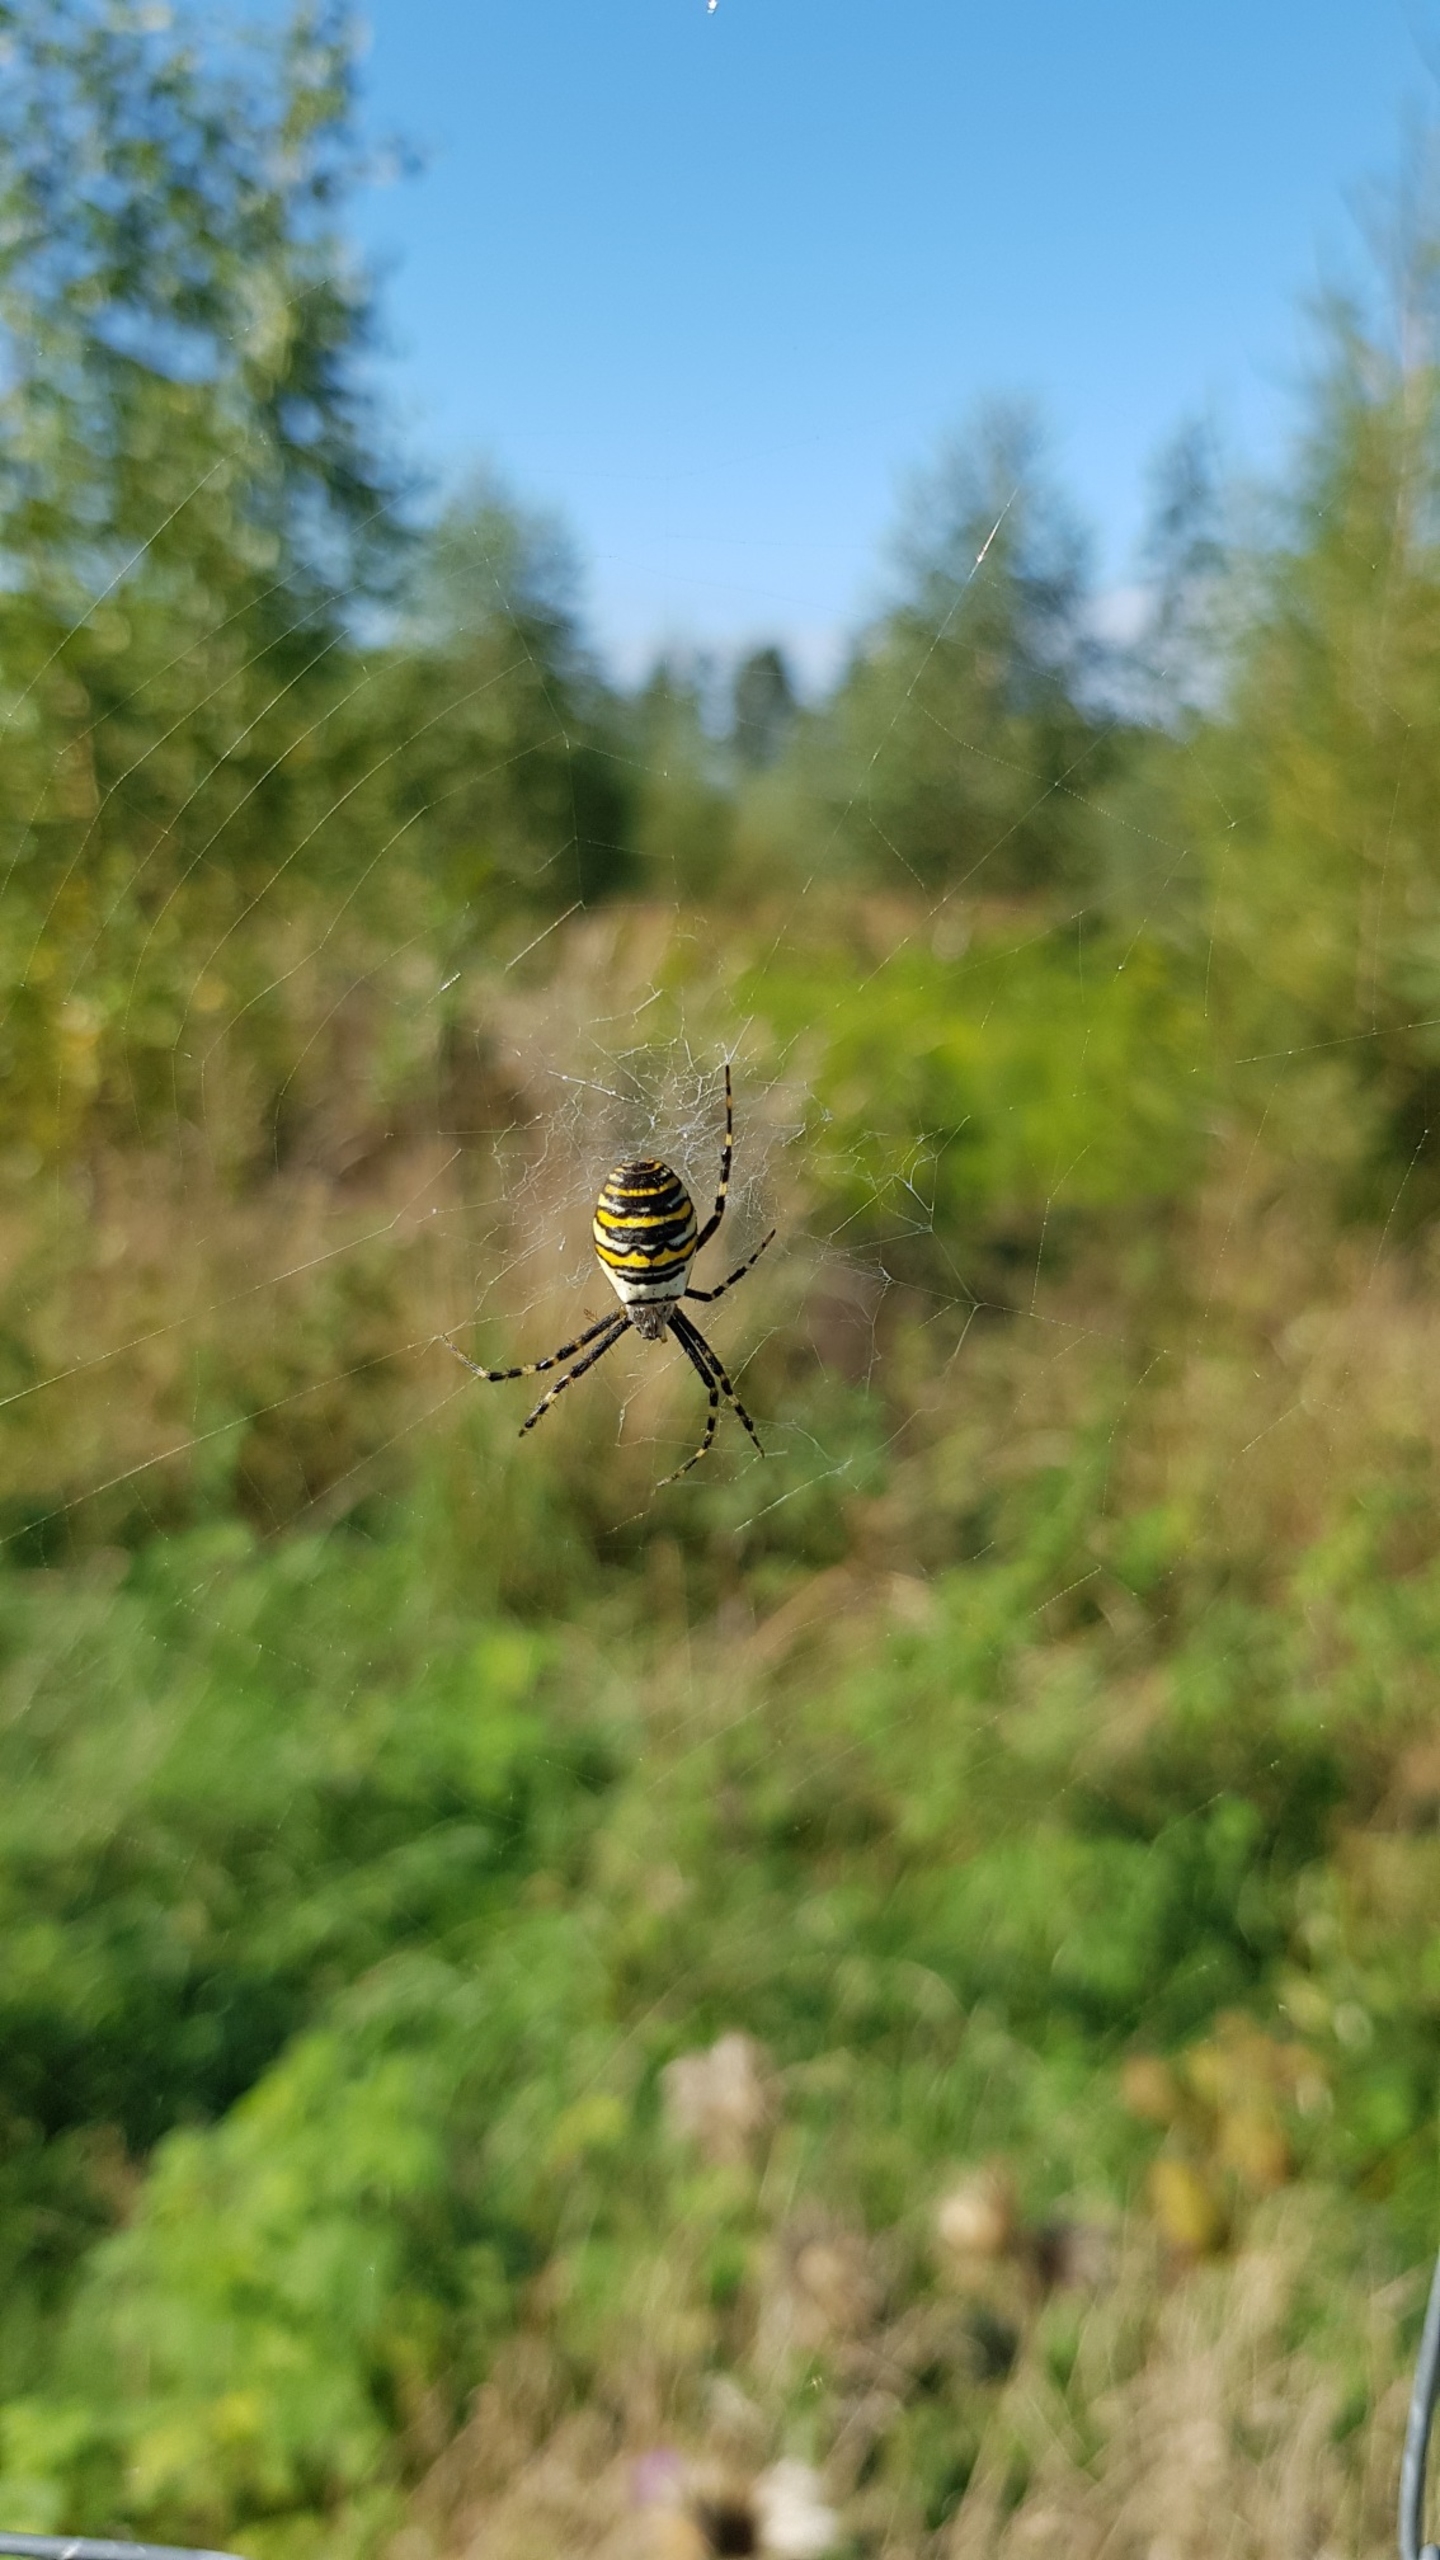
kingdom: Animalia
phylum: Arthropoda
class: Arachnida
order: Araneae
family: Araneidae
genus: Argiope
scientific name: Argiope bruennichi
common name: Hvepseedderkop
